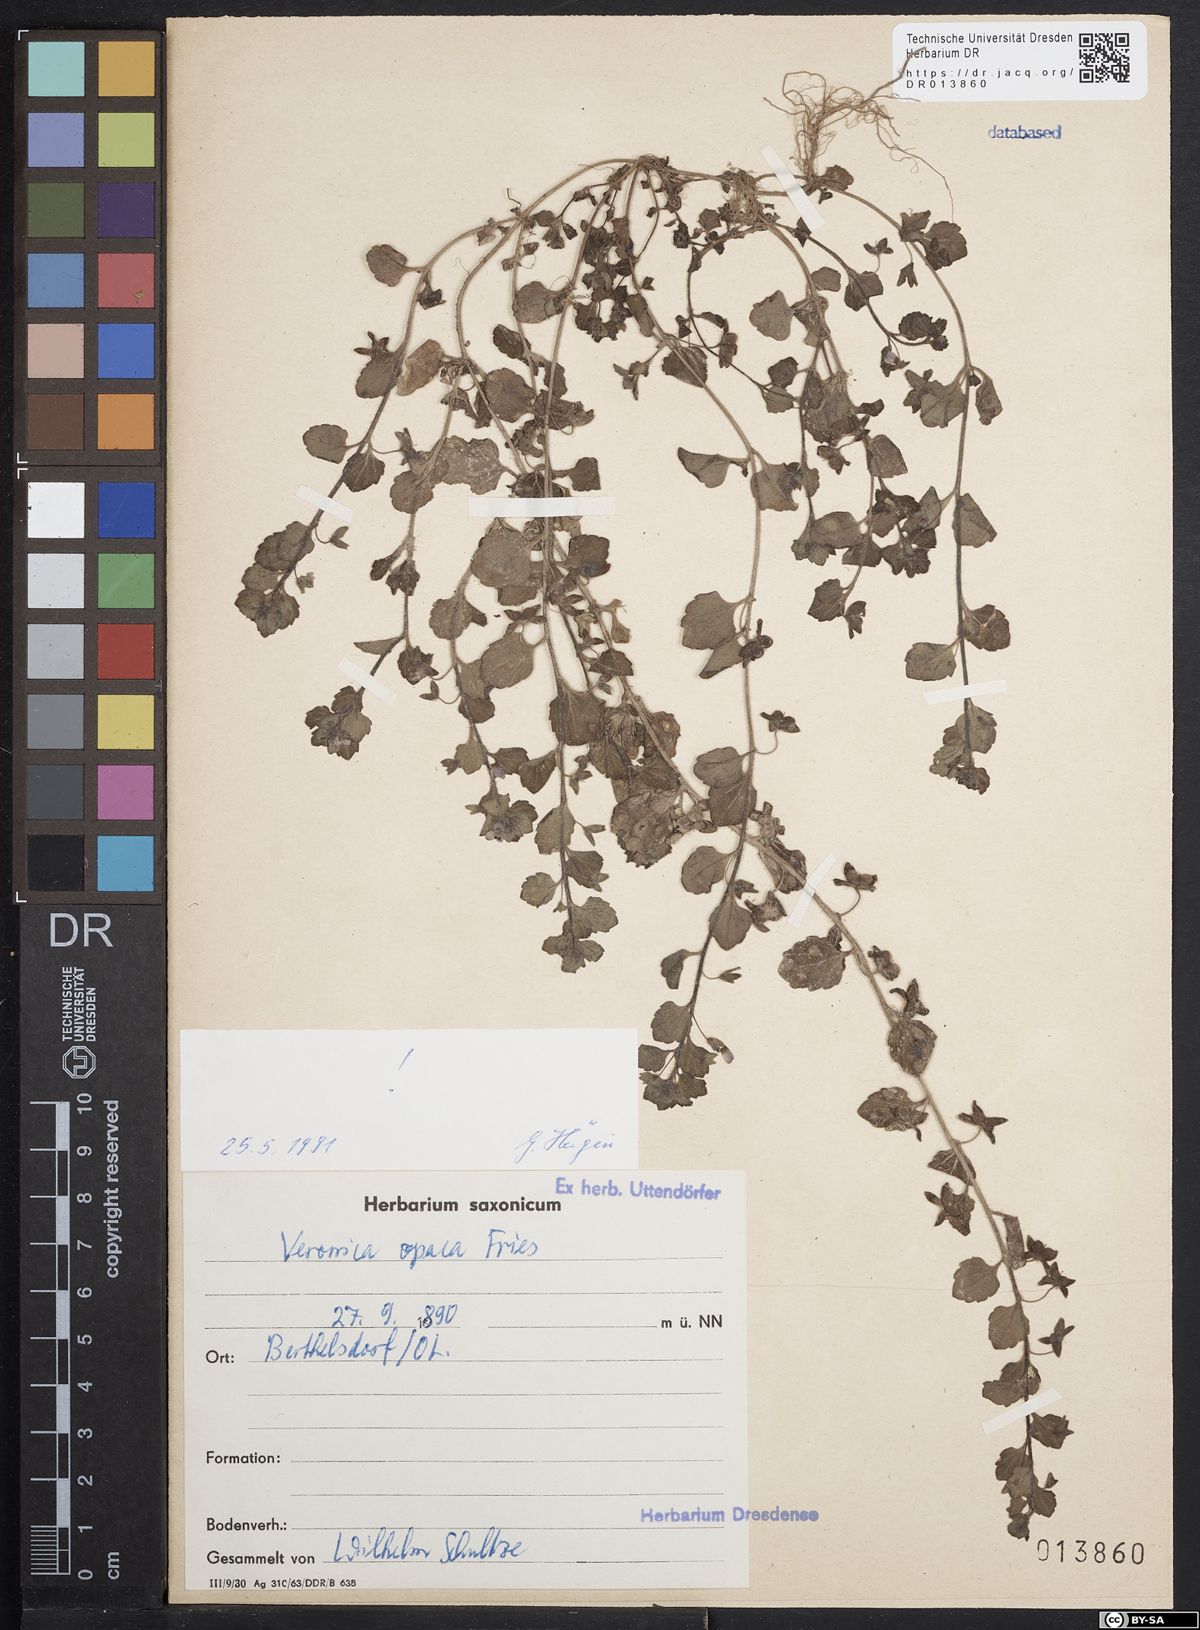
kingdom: Plantae
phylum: Tracheophyta
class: Magnoliopsida
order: Lamiales
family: Plantaginaceae
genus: Veronica
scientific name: Veronica opaca
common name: Dark speedwell
